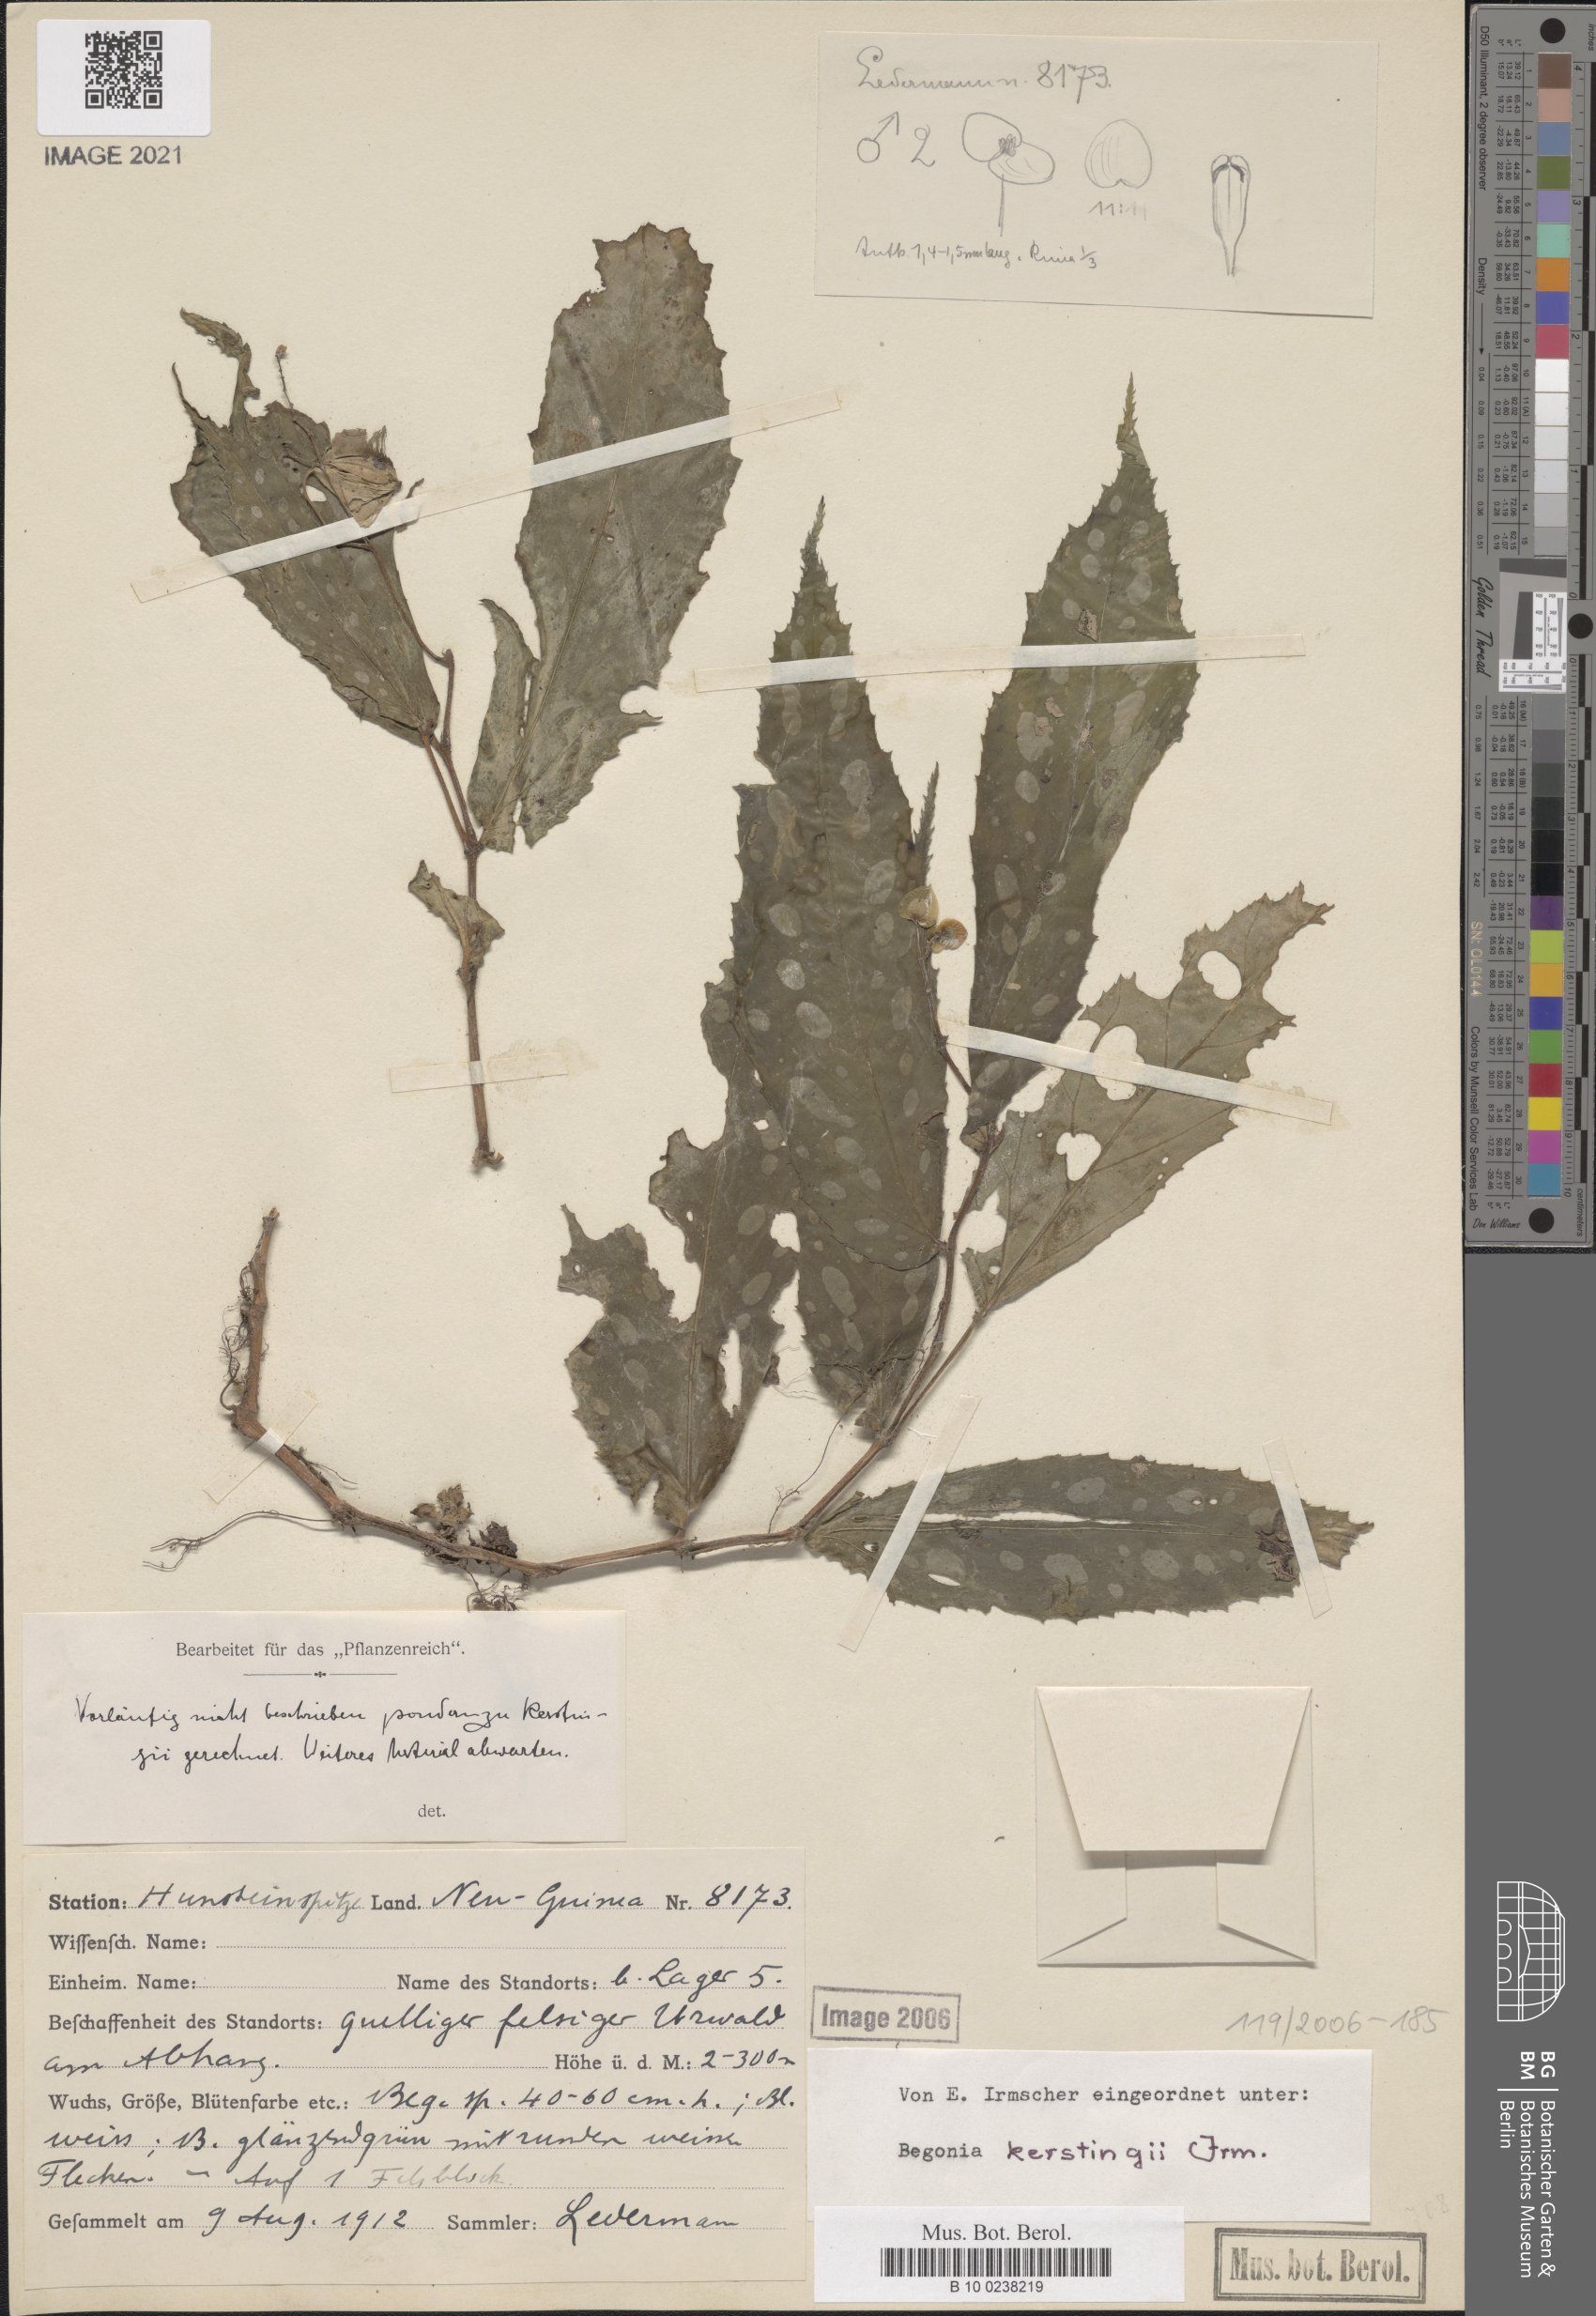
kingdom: Plantae
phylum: Tracheophyta
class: Magnoliopsida
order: Cucurbitales
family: Begoniaceae
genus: Begonia
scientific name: Begonia kerstingii
